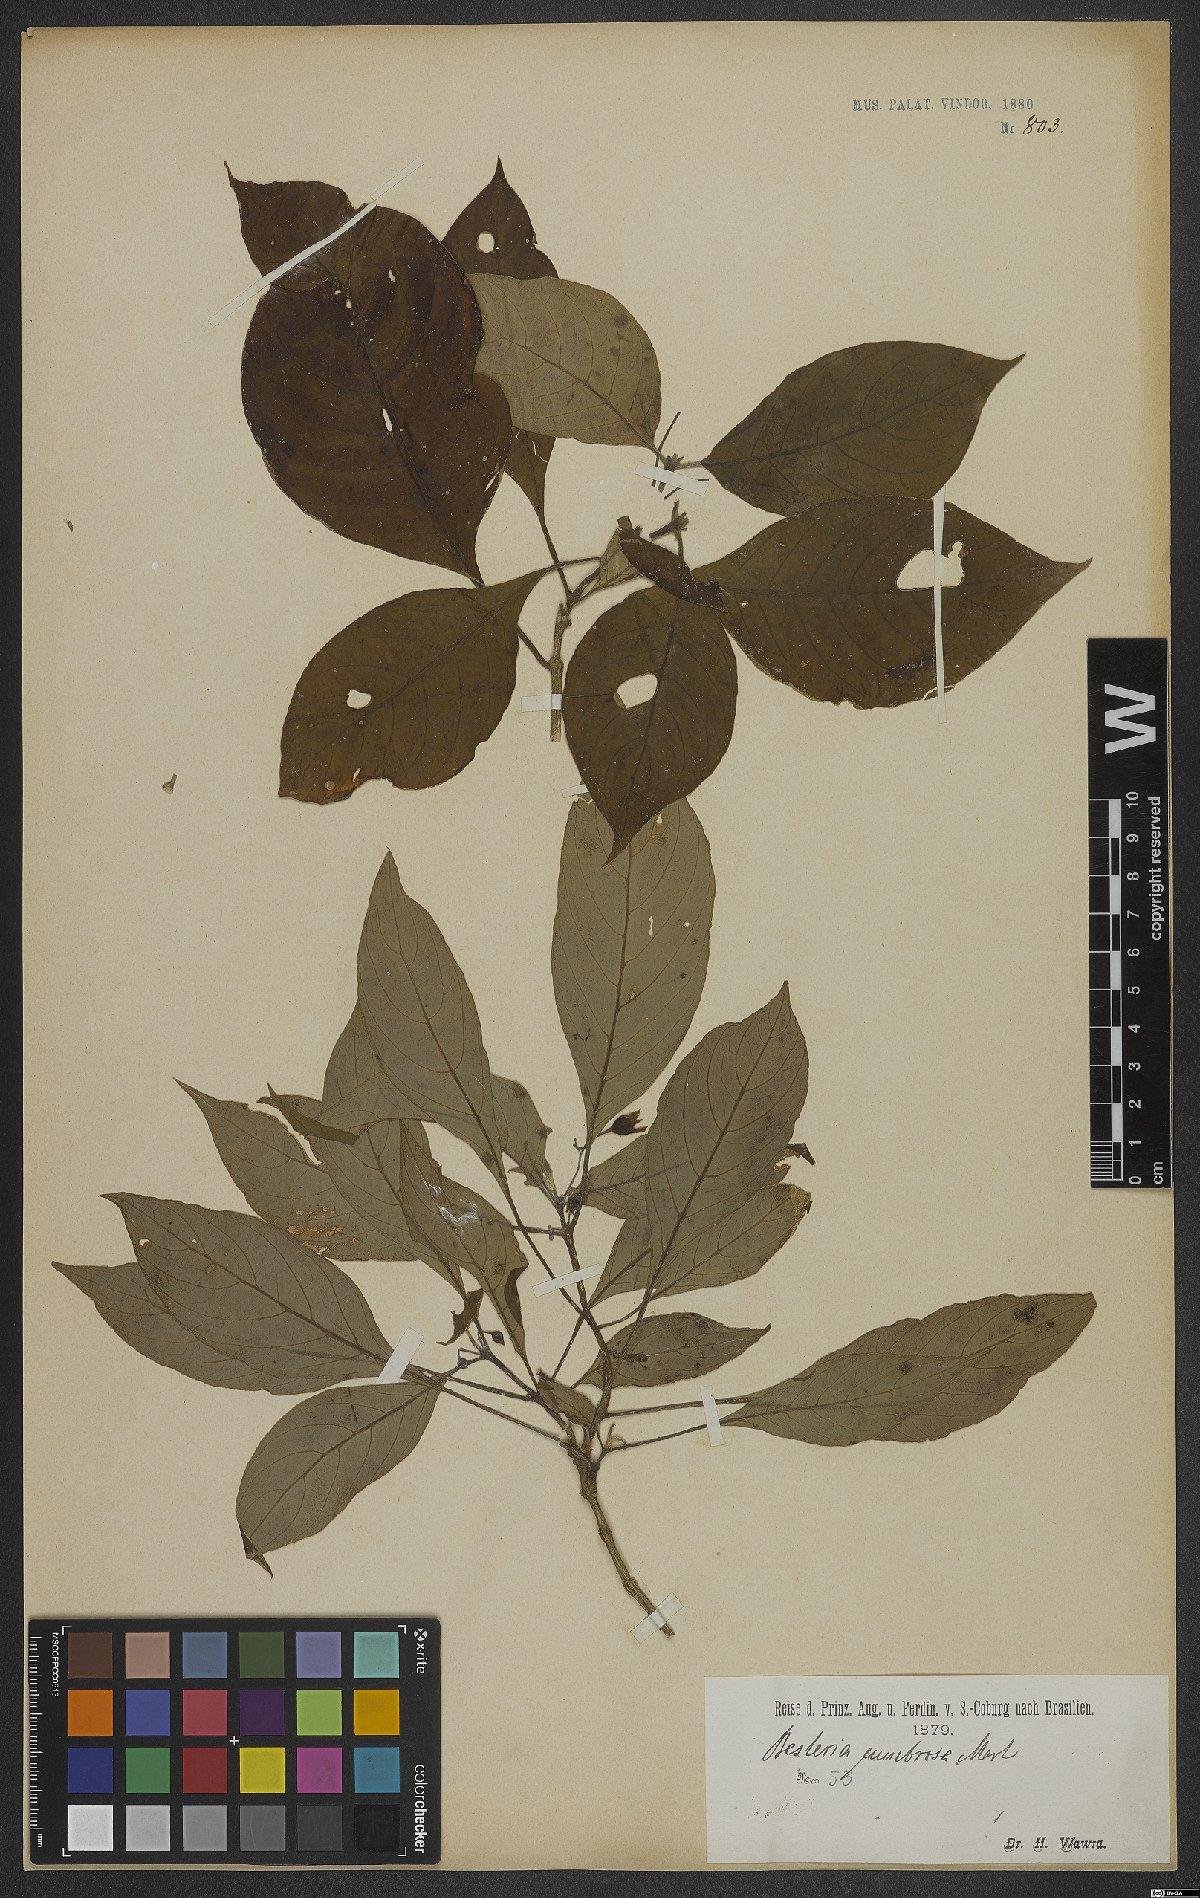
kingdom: Plantae
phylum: Tracheophyta
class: Magnoliopsida
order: Lamiales
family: Gesneriaceae
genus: Besleria
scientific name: Besleria umbrosa
